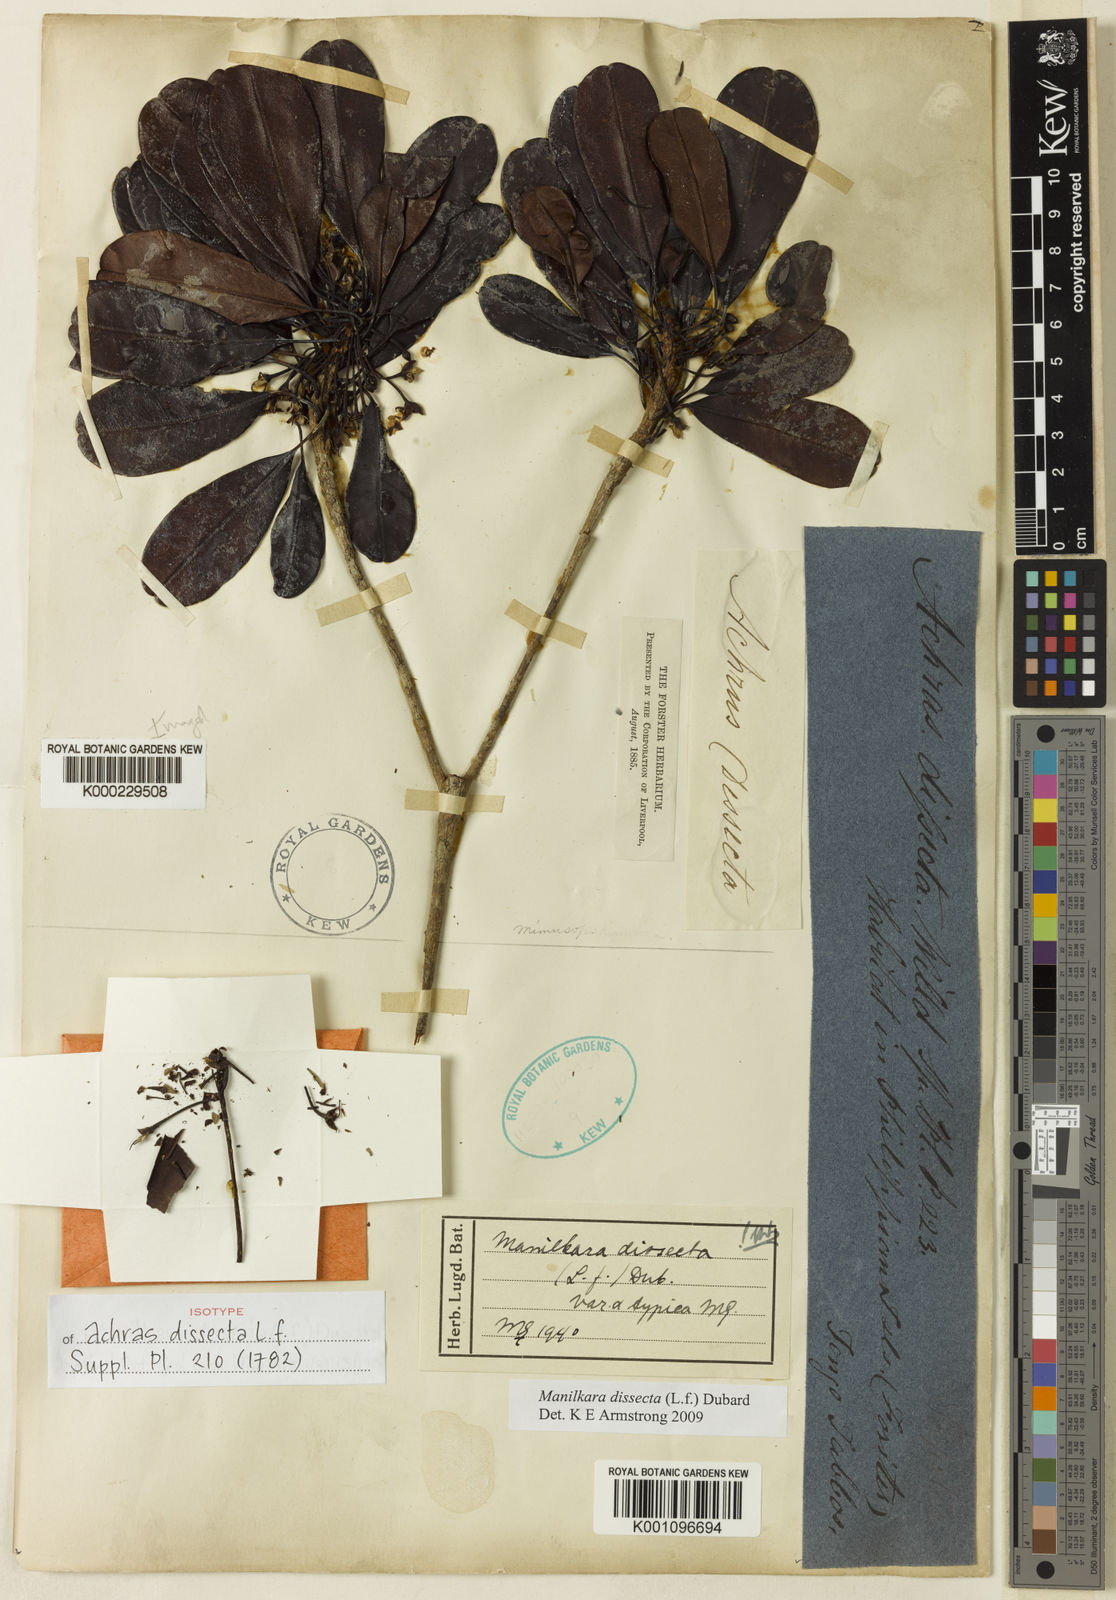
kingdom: Plantae
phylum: Tracheophyta
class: Magnoliopsida
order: Ericales
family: Sapotaceae
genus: Manilkara
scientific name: Manilkara dissecta
